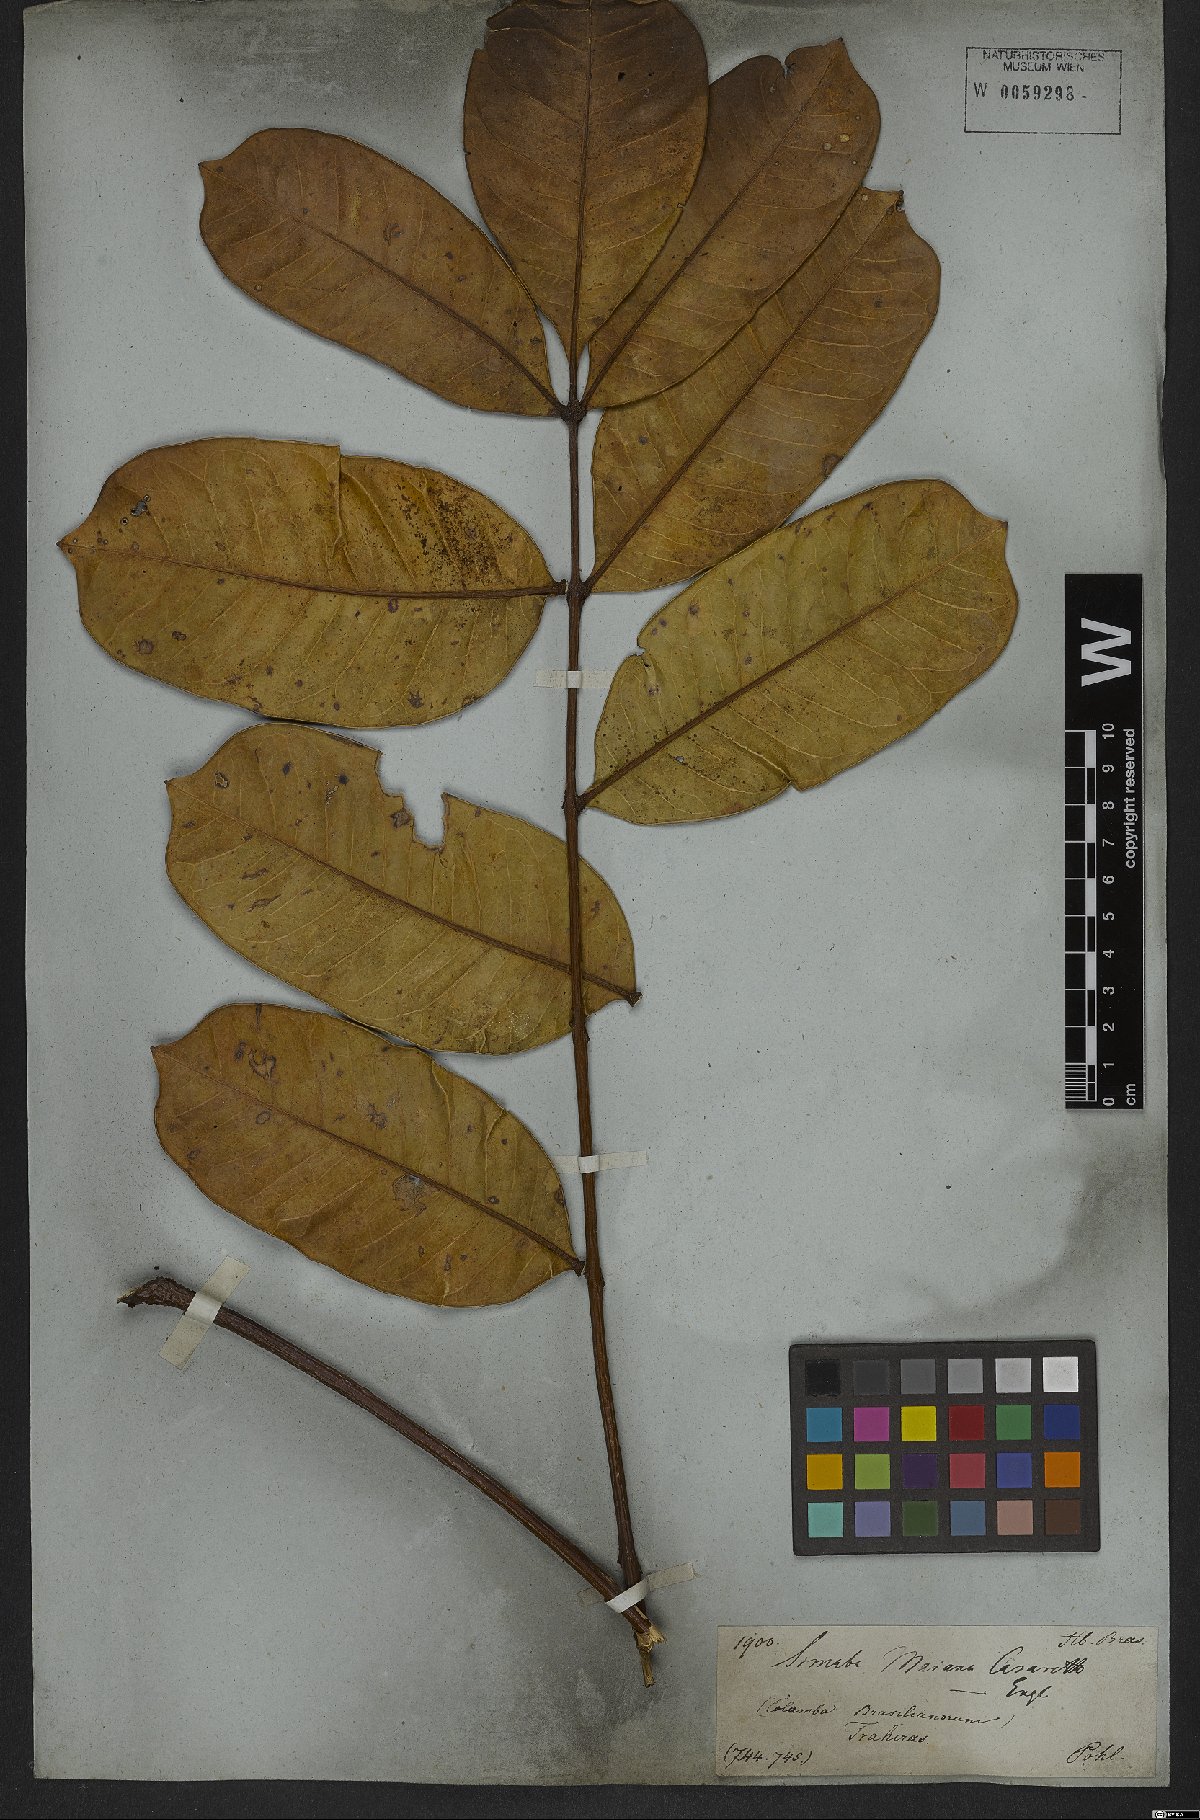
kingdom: Plantae
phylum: Tracheophyta
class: Magnoliopsida
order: Sapindales
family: Simaroubaceae
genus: Homalolepis
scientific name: Homalolepis maiana
